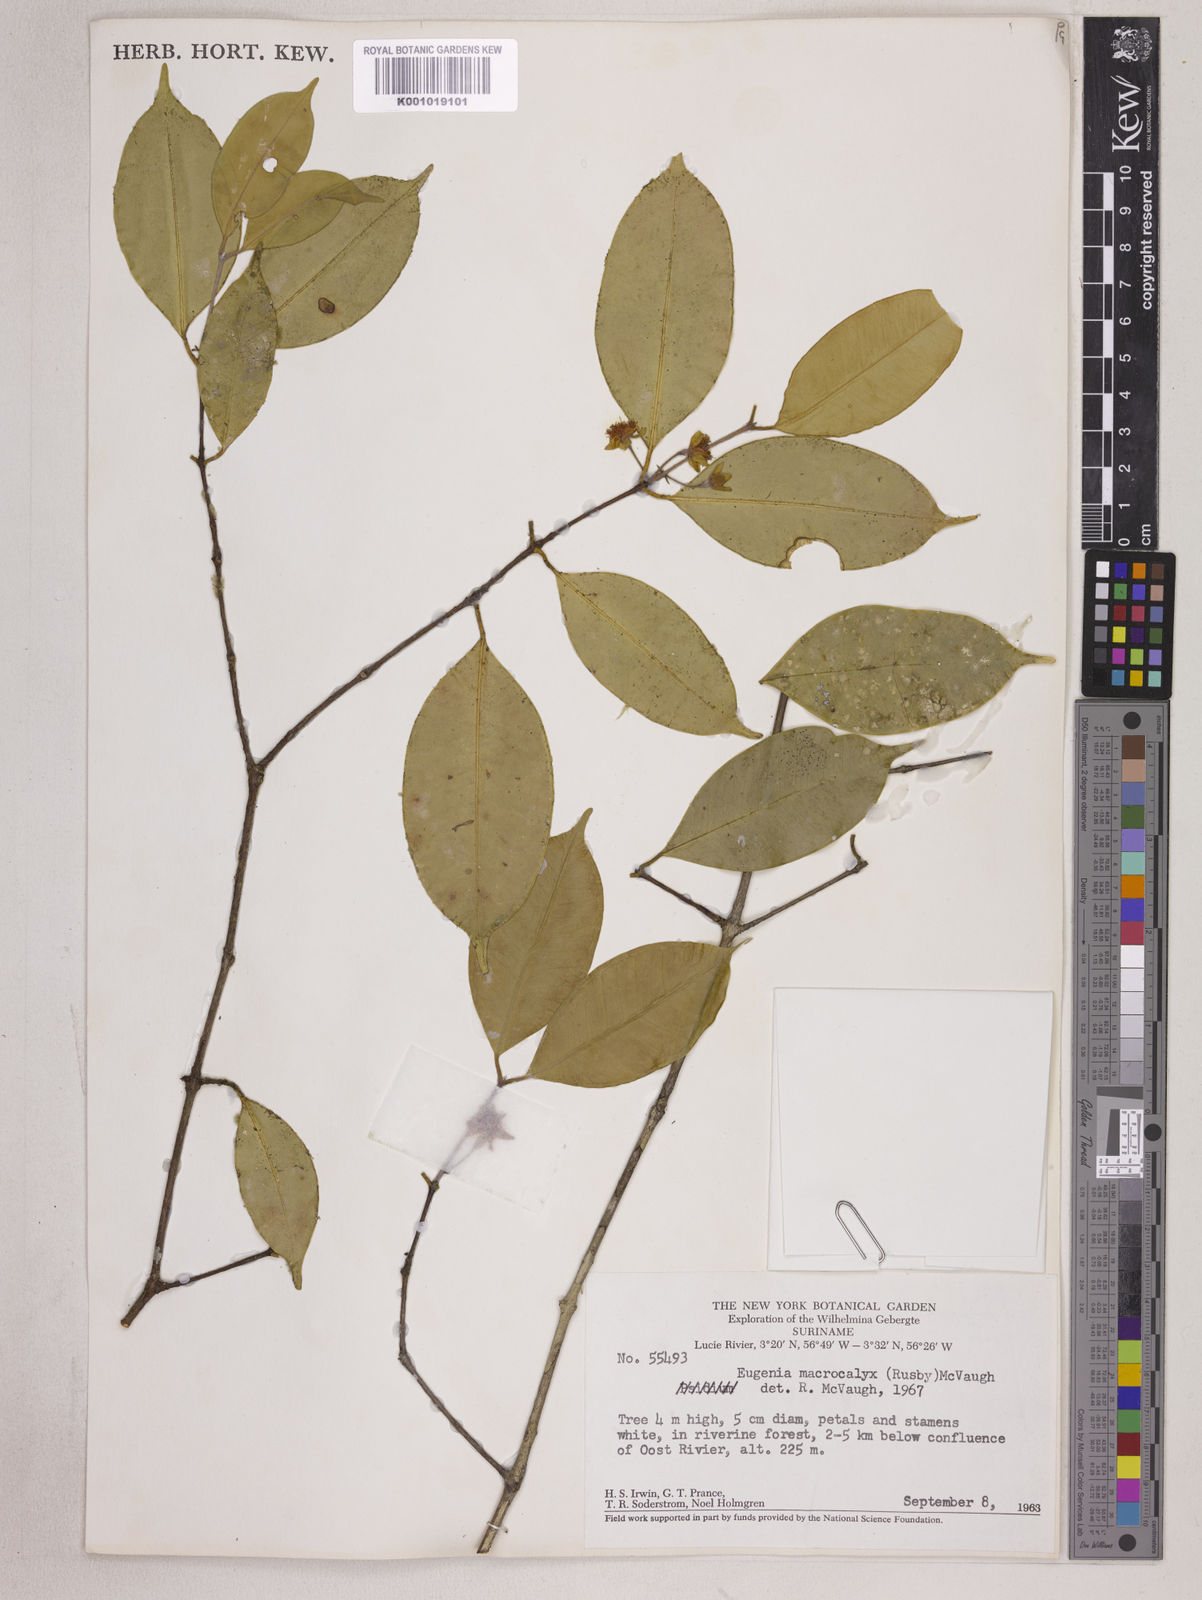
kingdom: Plantae
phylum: Tracheophyta
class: Magnoliopsida
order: Myrtales
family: Myrtaceae
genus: Eugenia
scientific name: Eugenia wentii
